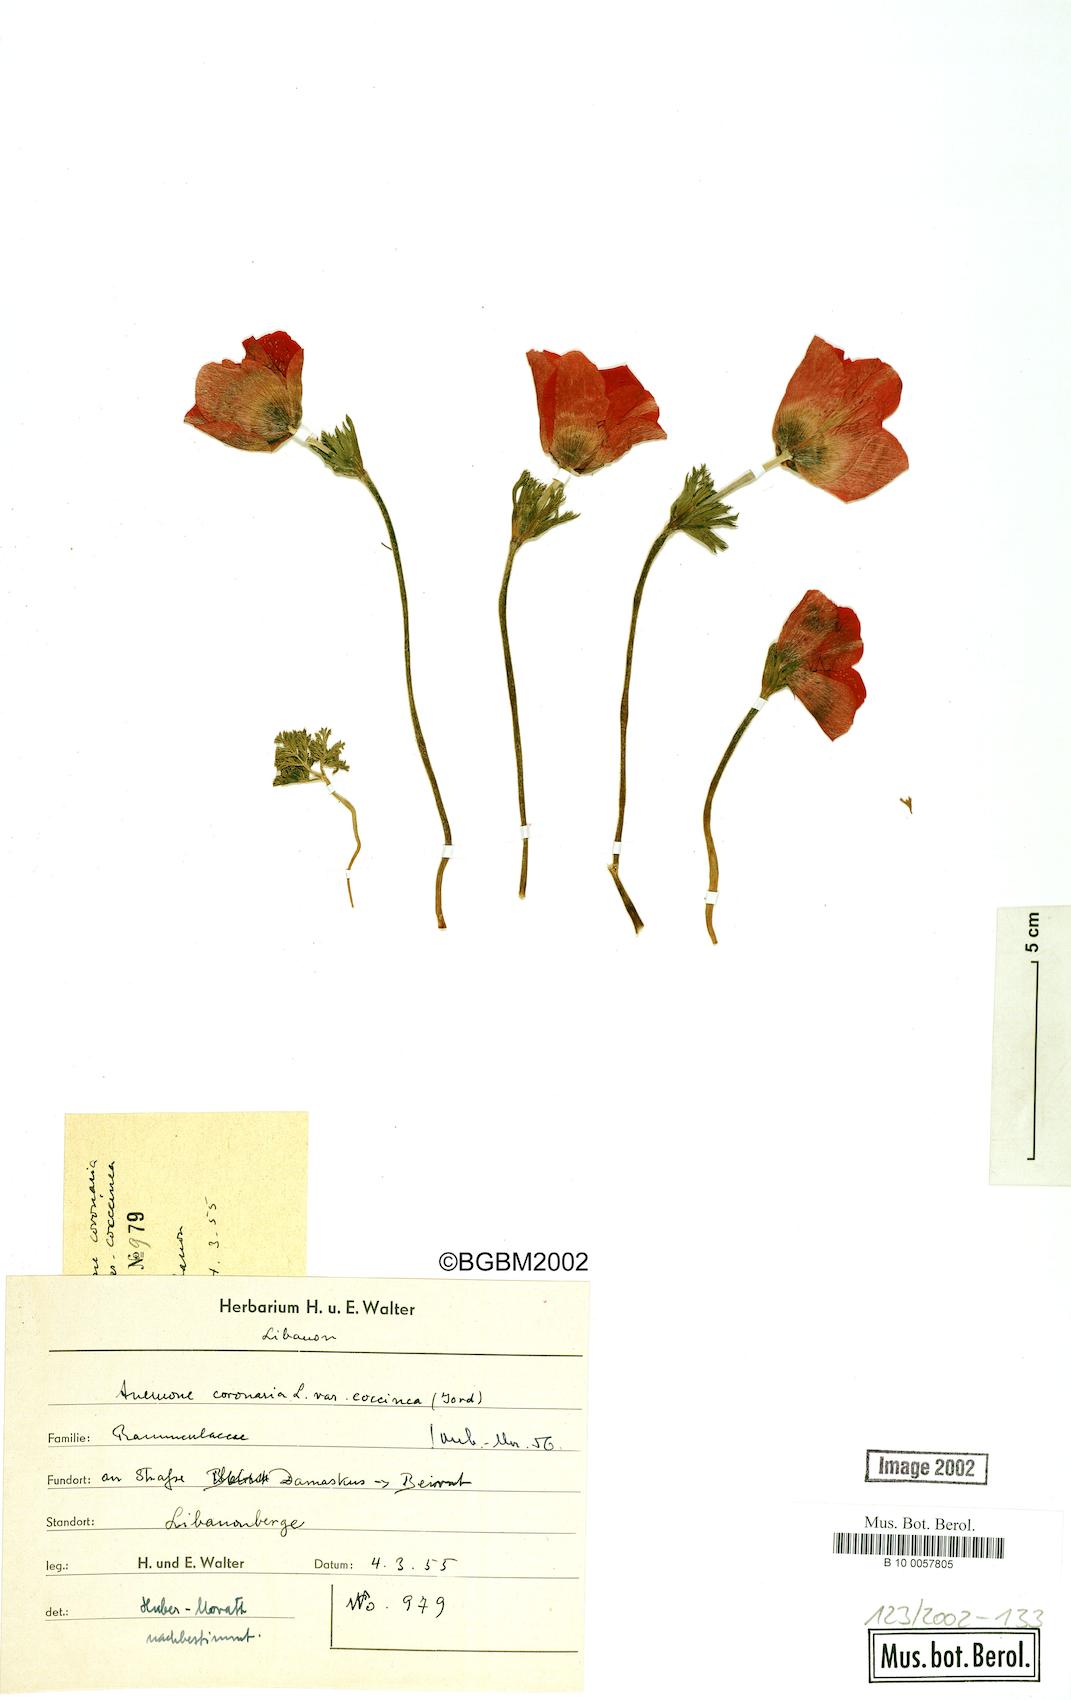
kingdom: Plantae
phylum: Tracheophyta
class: Magnoliopsida
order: Ranunculales
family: Ranunculaceae
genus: Anemone
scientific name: Anemone coronaria
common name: Poppy anemone
